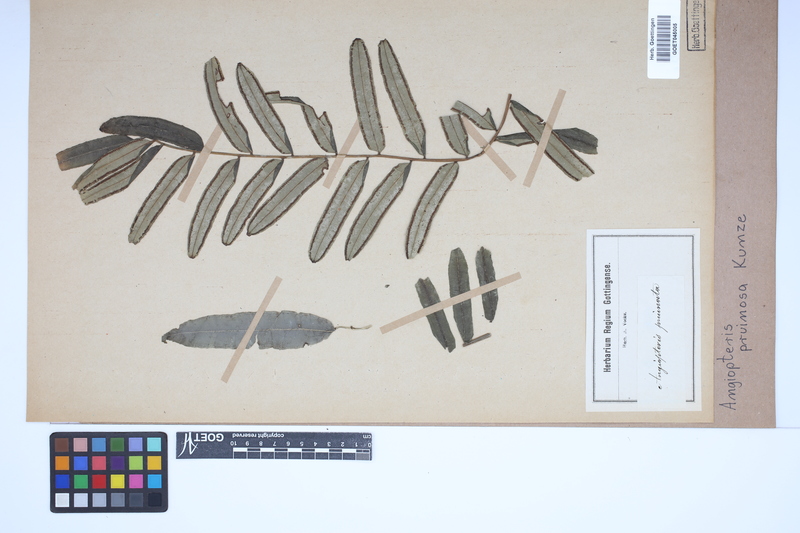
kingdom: Plantae
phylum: Tracheophyta
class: Polypodiopsida
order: Marattiales
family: Marattiaceae
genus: Angiopteris
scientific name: Angiopteris pruinosa
